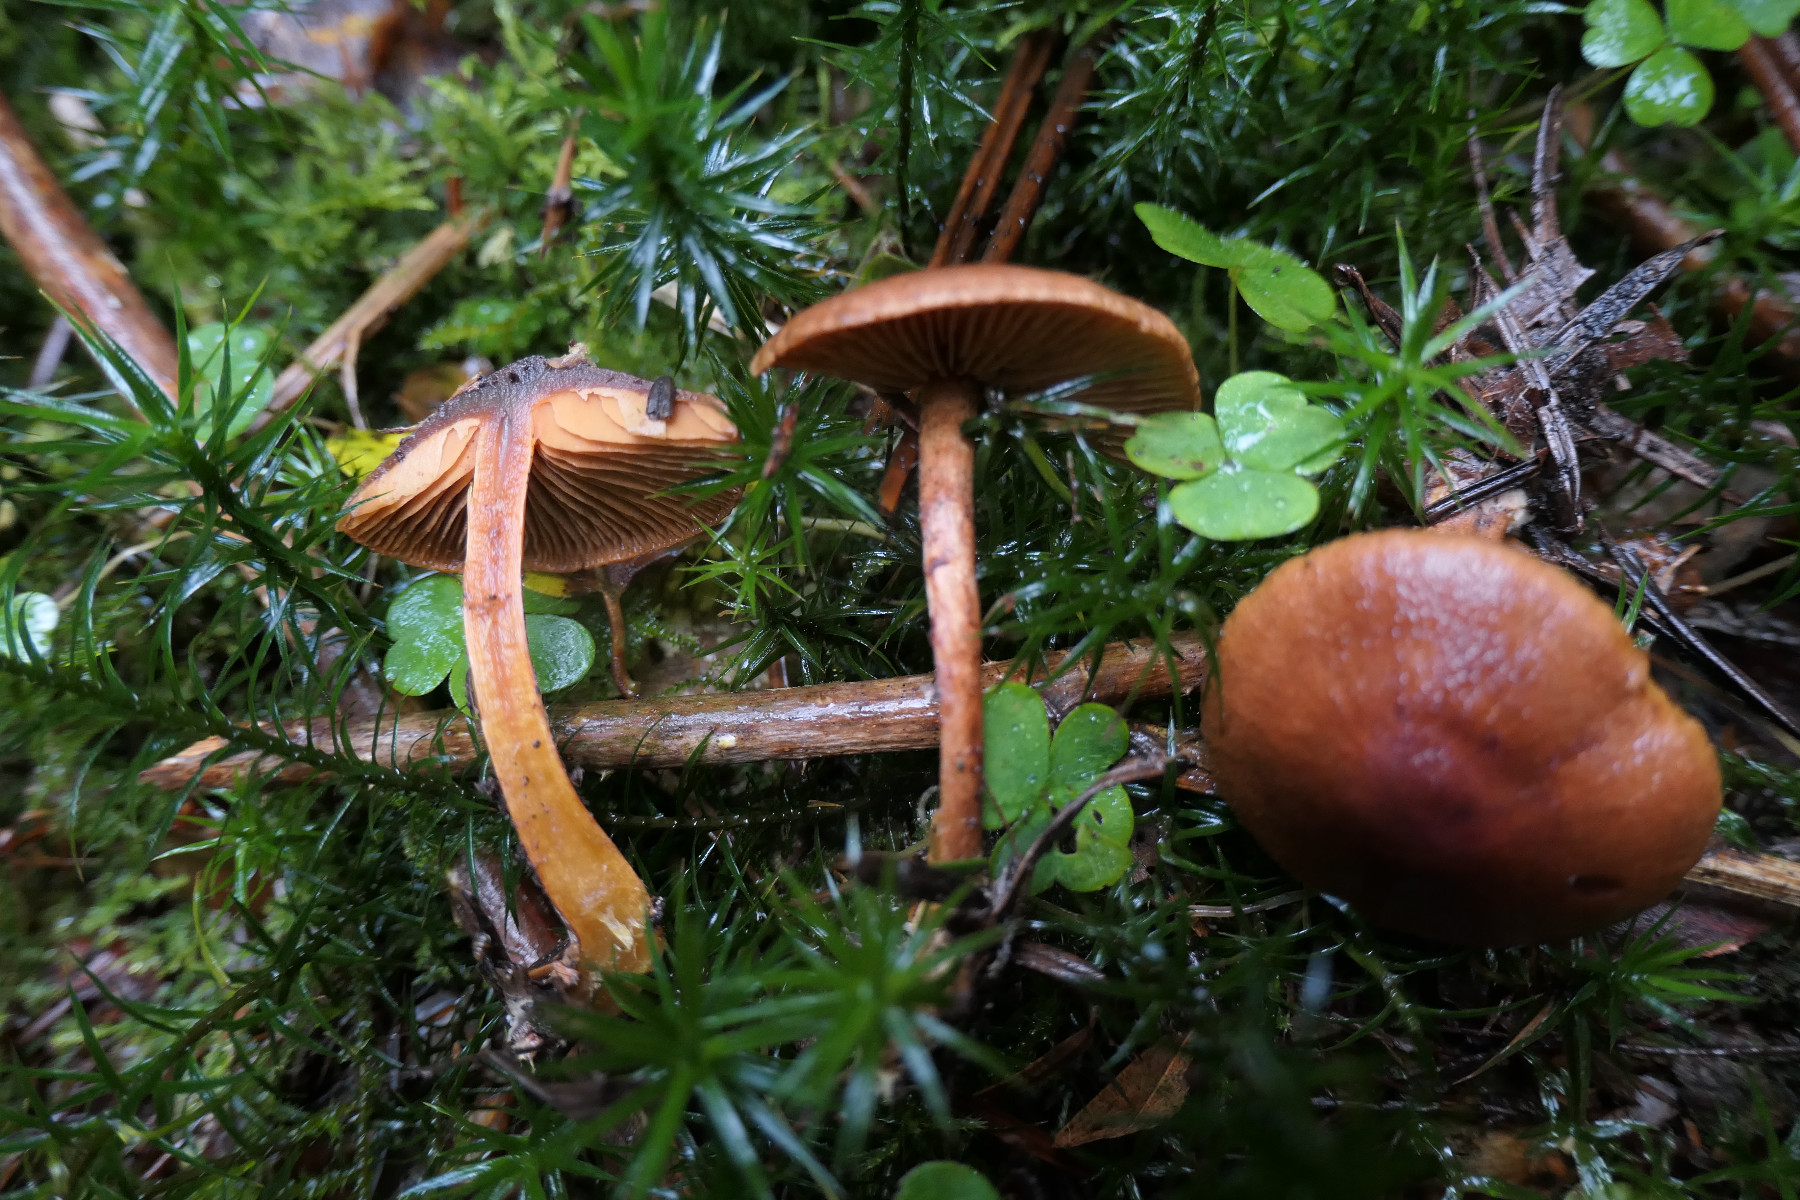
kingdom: Fungi
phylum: Basidiomycota
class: Agaricomycetes
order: Agaricales
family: Cortinariaceae
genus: Cortinarius
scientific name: Cortinarius cinnamomeus
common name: kanel-slørhat
